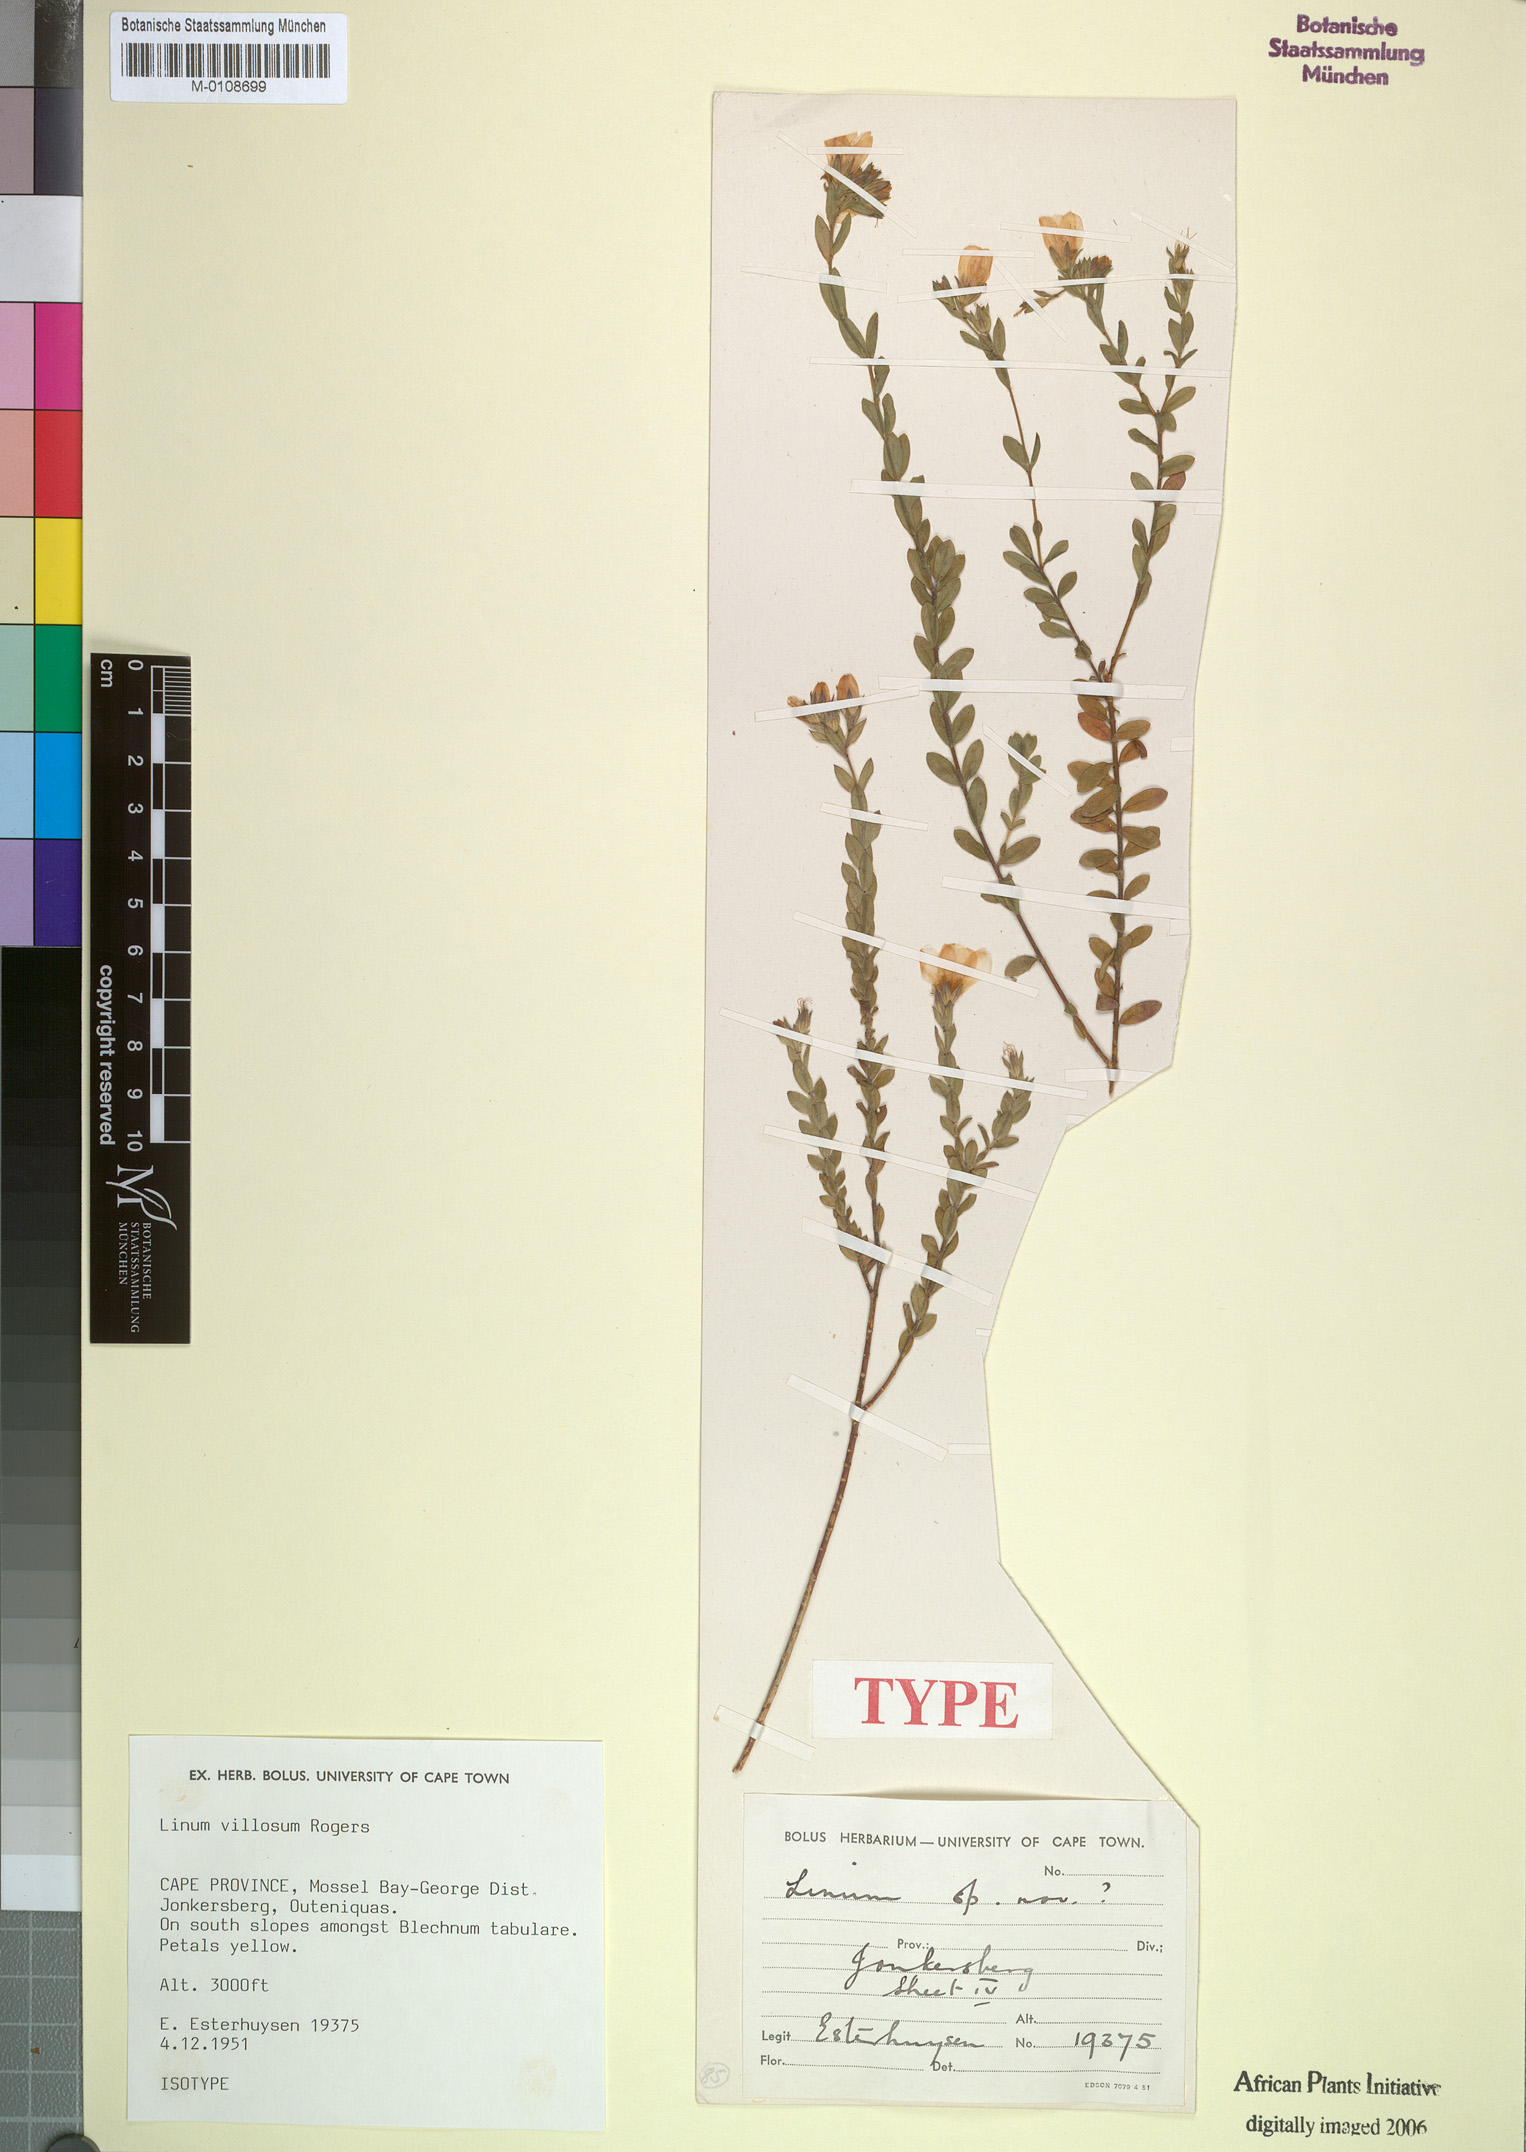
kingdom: Plantae
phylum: Tracheophyta
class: Magnoliopsida
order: Malpighiales
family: Linaceae
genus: Linum
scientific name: Linum villosum
